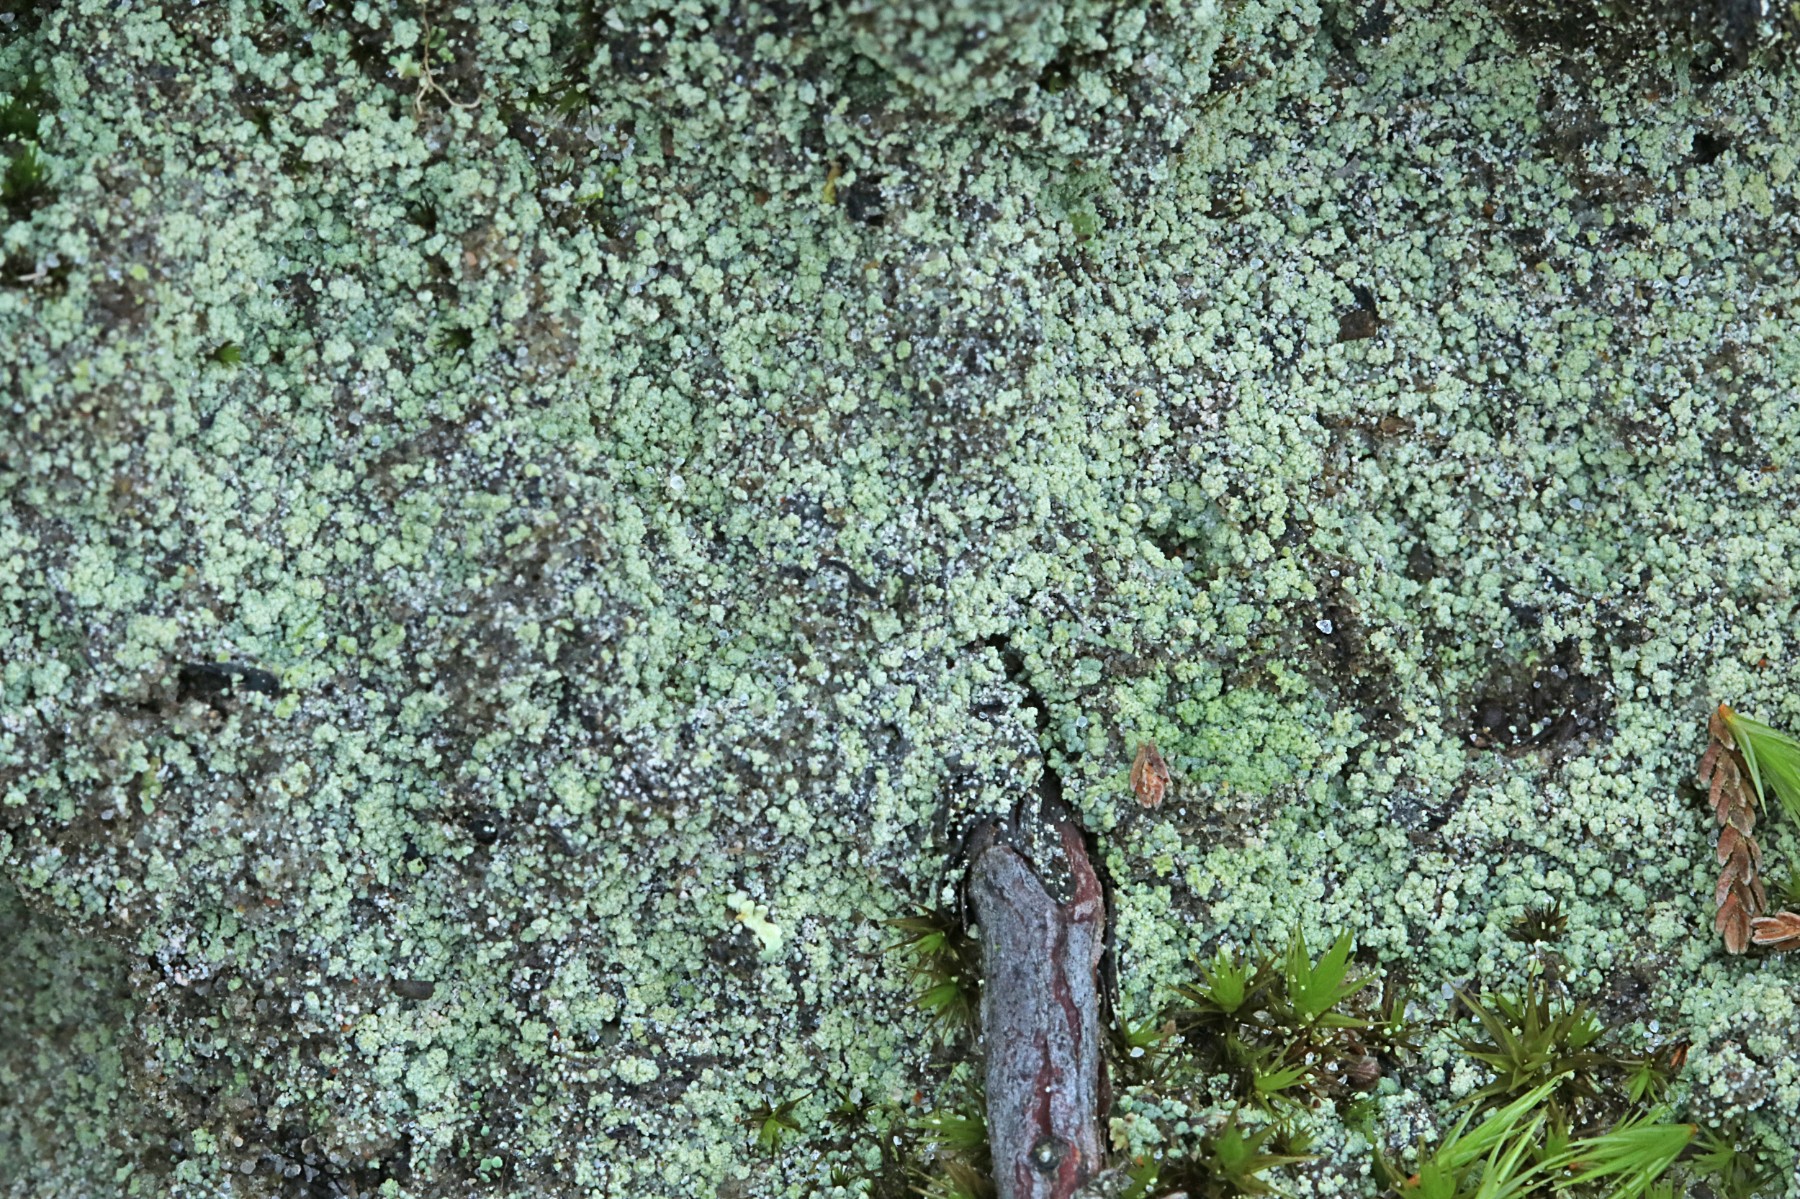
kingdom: Fungi
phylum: Ascomycota
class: Lecanoromycetes
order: Baeomycetales
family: Trapeliaceae
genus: Trapeliopsis
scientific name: Trapeliopsis granulosa
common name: forskelligfarvet skivelav
